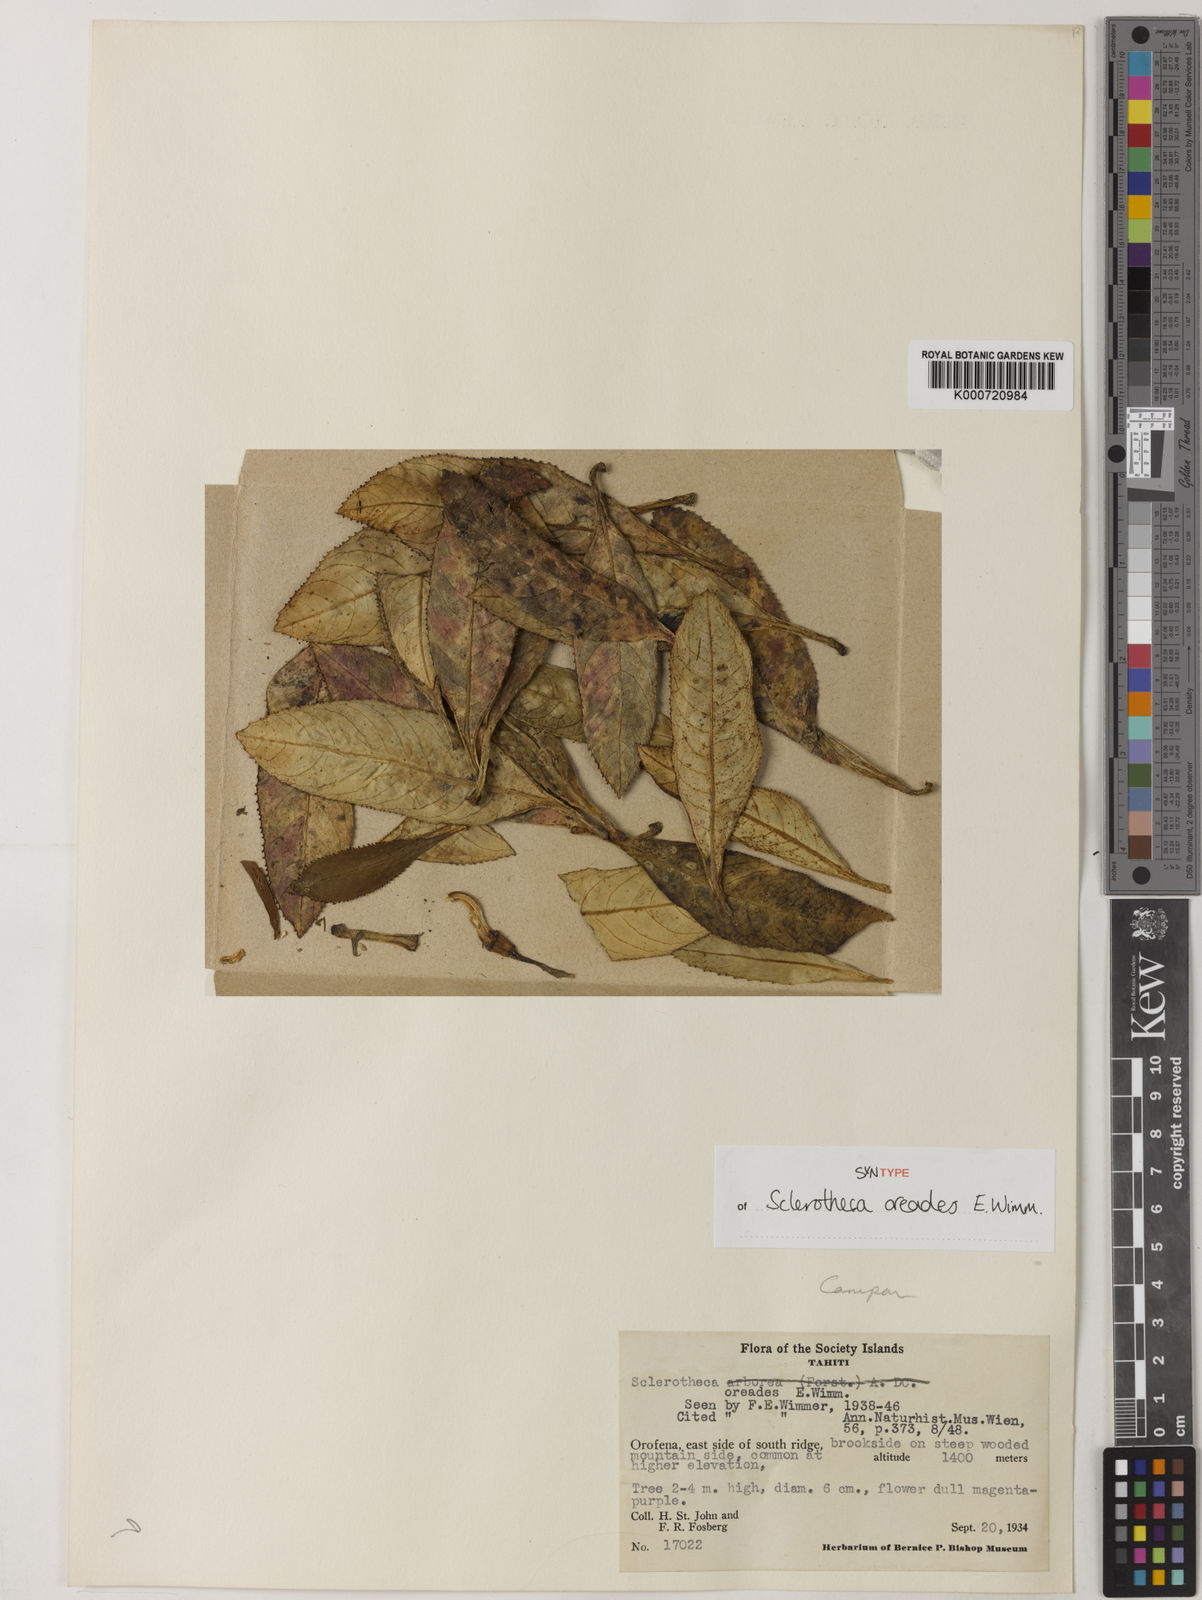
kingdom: Plantae
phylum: Tracheophyta
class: Magnoliopsida
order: Asterales
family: Campanulaceae
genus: Sclerotheca
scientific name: Sclerotheca oreades
